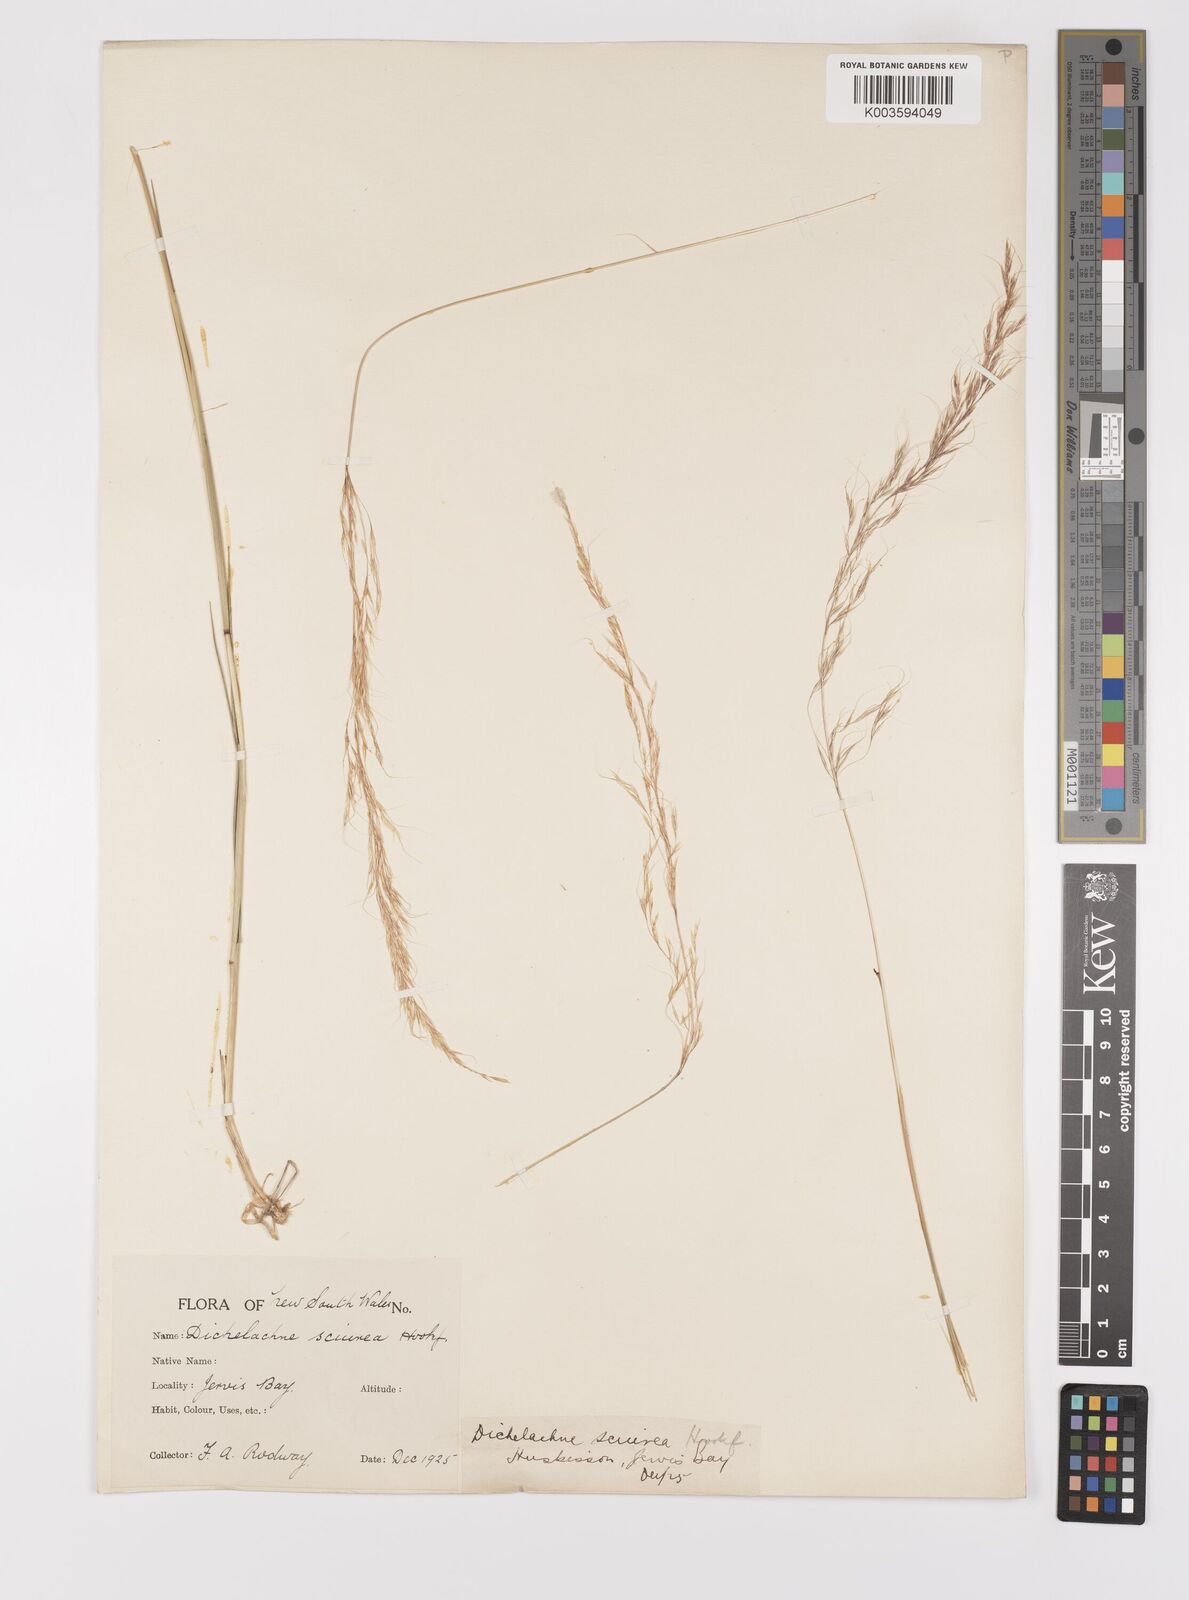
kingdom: Plantae
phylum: Tracheophyta
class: Liliopsida
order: Poales
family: Poaceae
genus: Dichelachne
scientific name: Dichelachne rara
